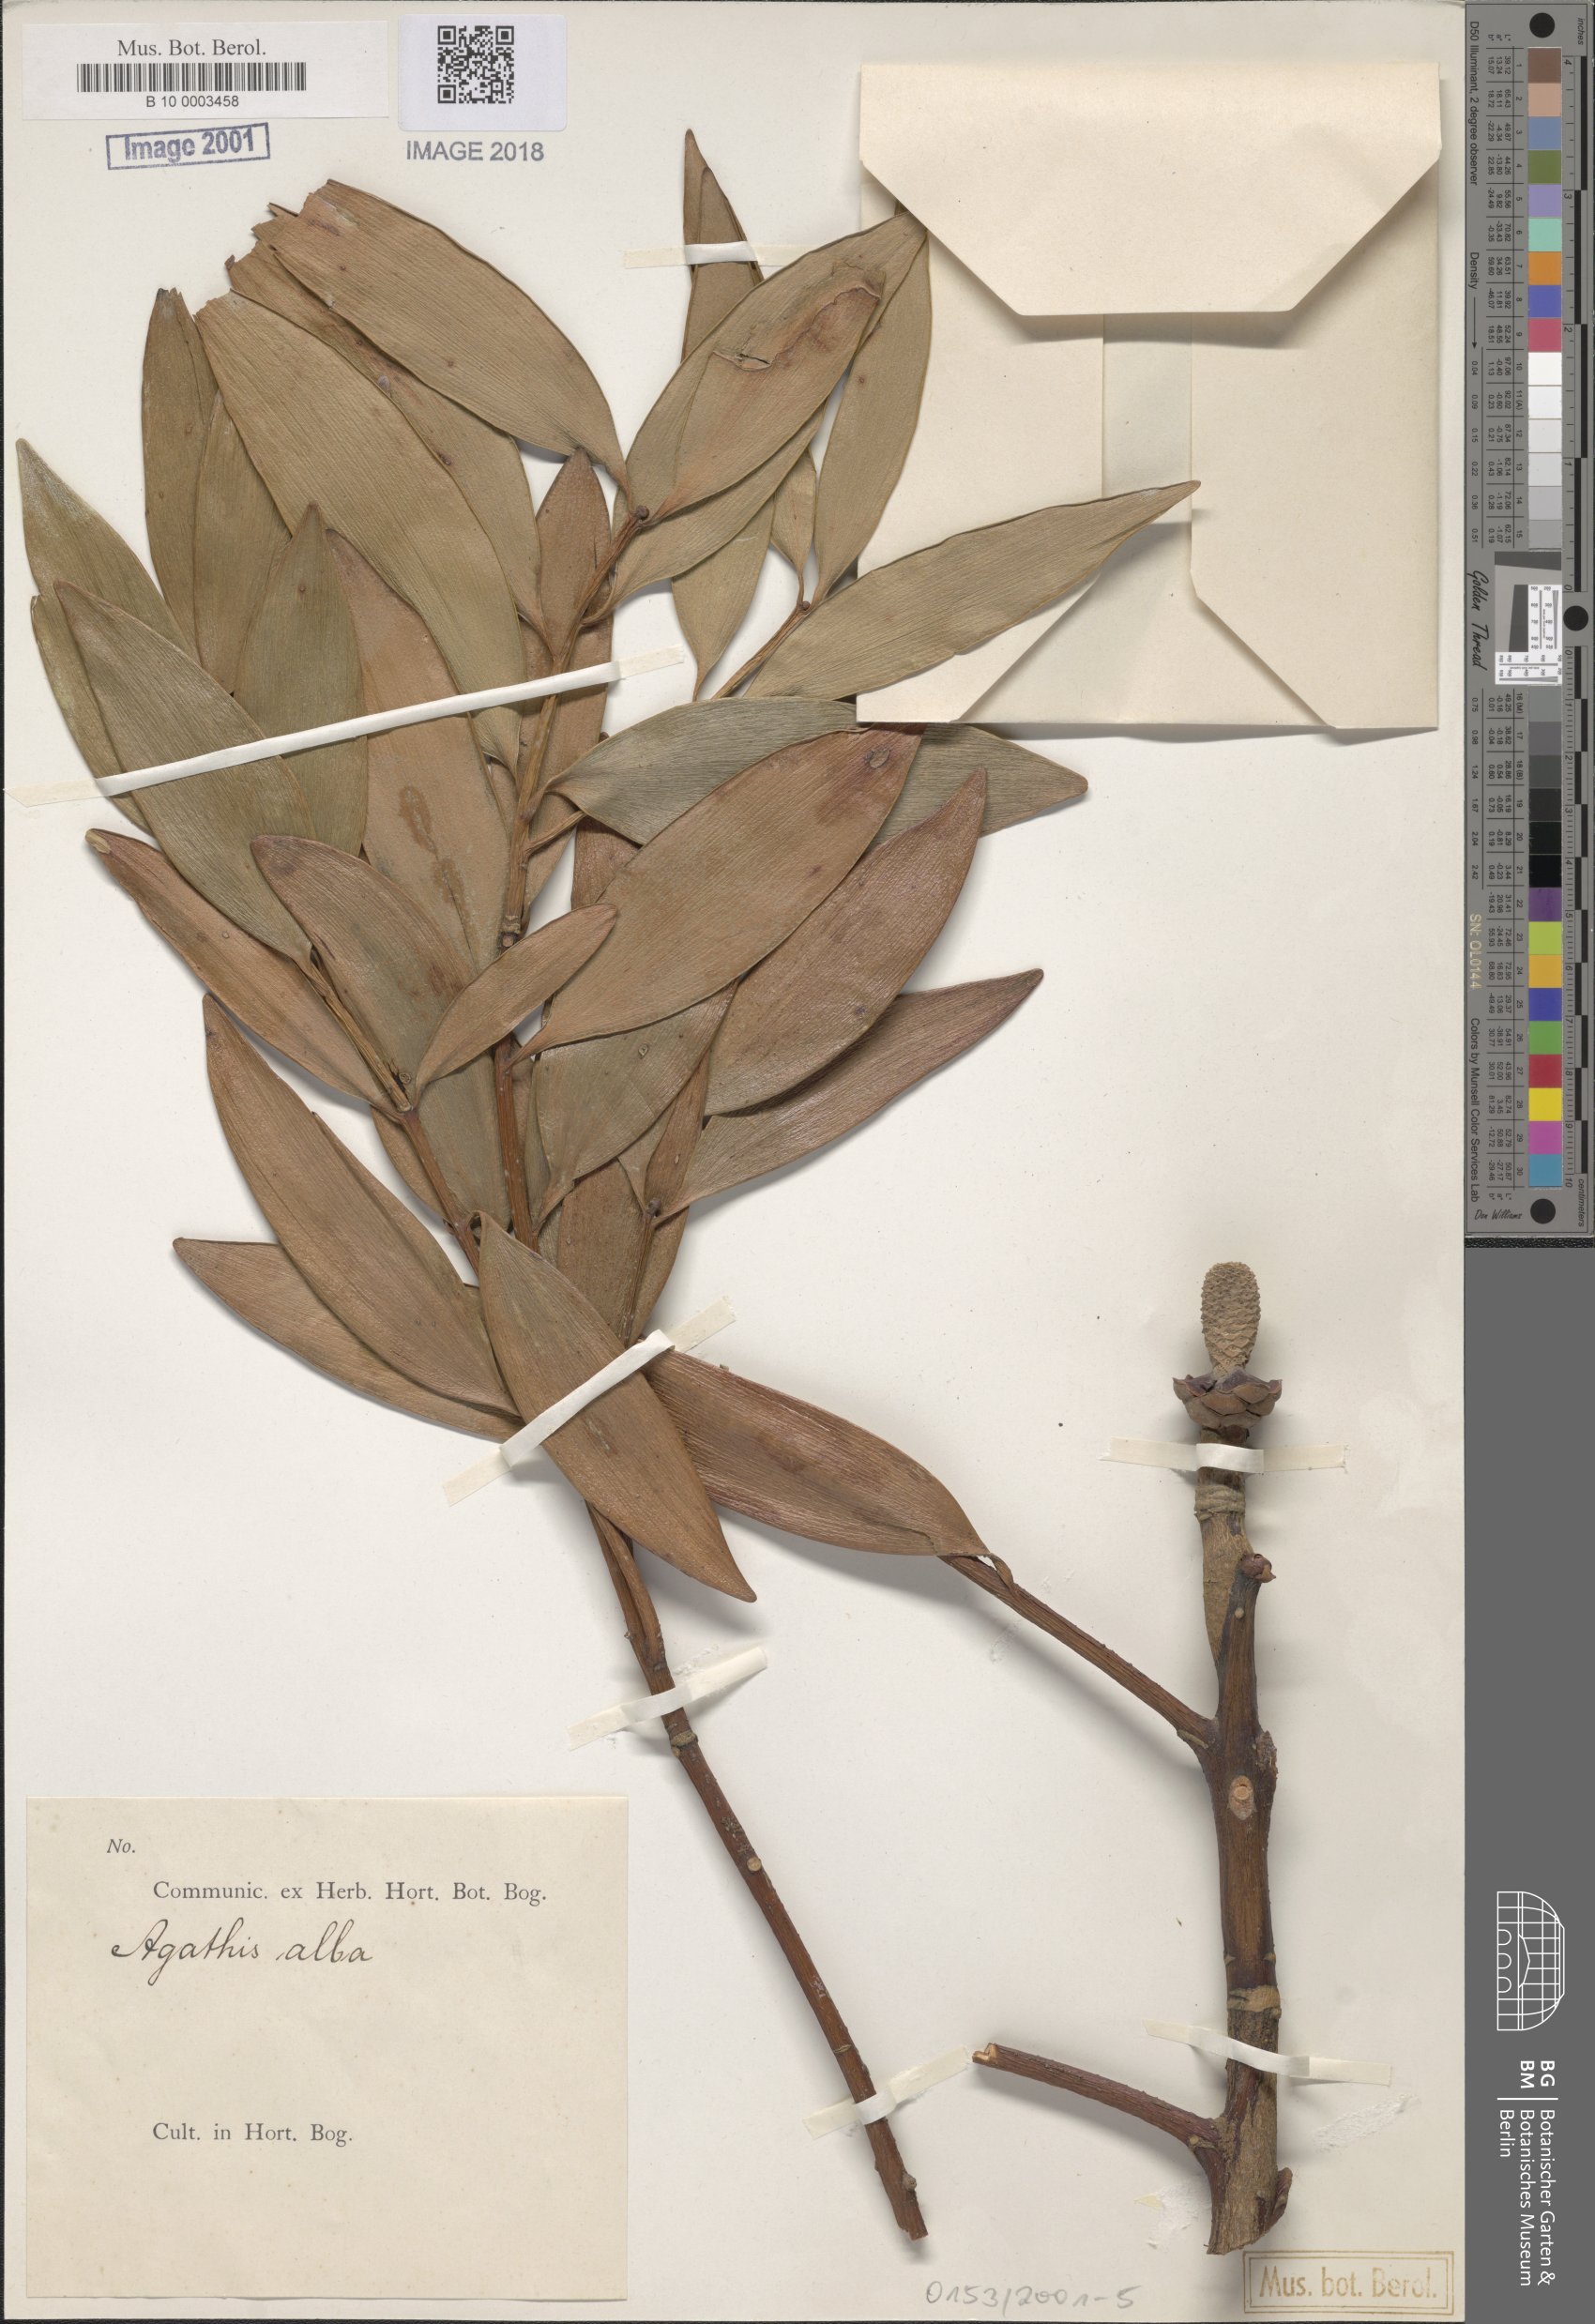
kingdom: Plantae
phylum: Tracheophyta
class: Pinopsida
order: Pinales
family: Araucariaceae
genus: Agathis
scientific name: Agathis dammara
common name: Amboina pitch tree
